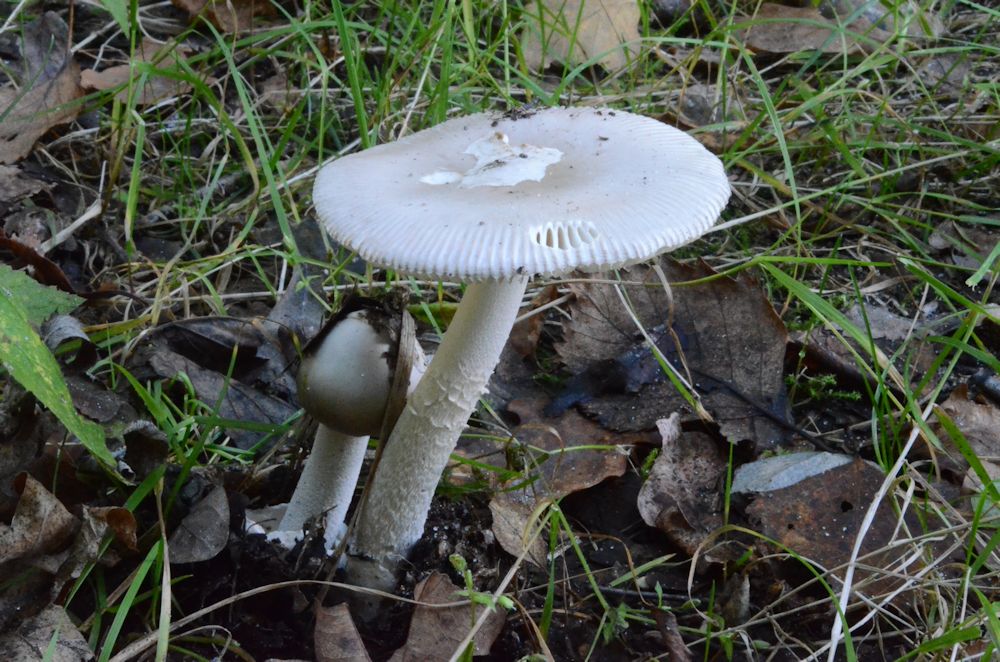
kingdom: Fungi
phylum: Basidiomycota
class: Agaricomycetes
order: Agaricales
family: Amanitaceae
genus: Amanita
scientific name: Amanita vaginata
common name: grå kam-fluesvamp
